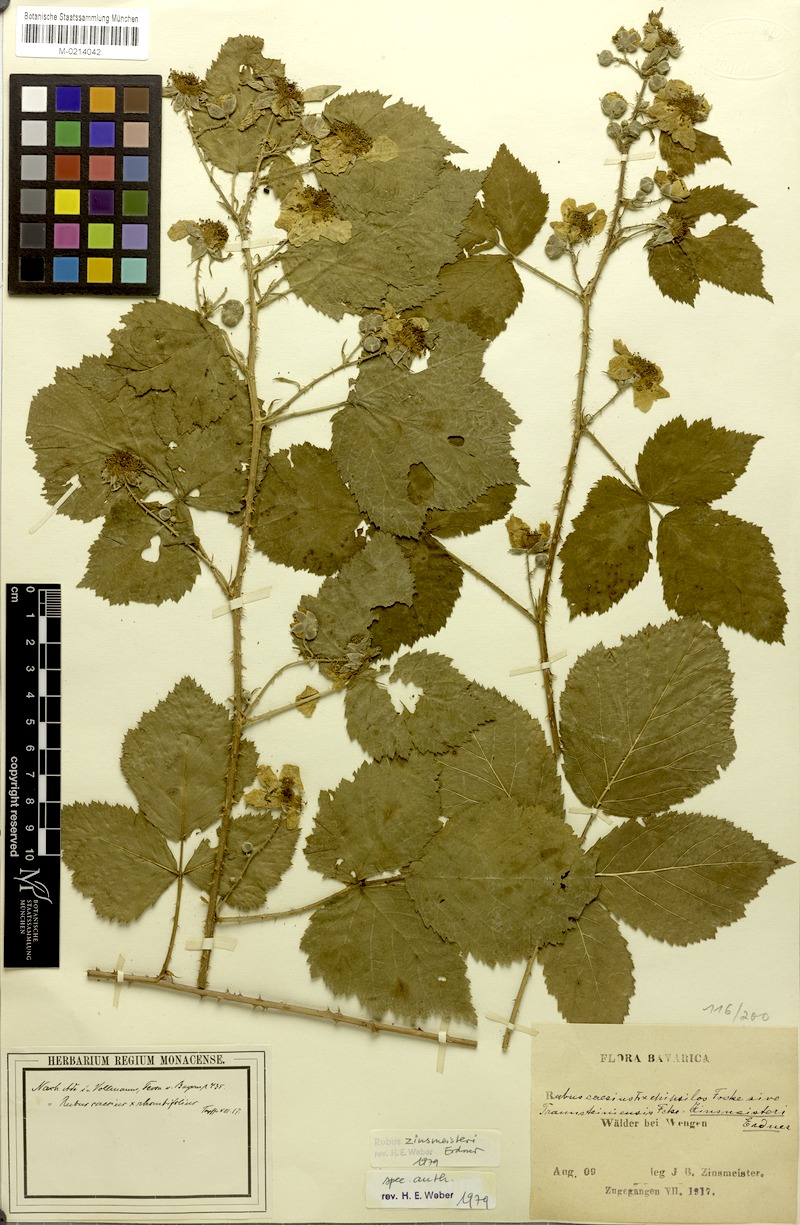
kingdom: Plantae
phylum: Tracheophyta
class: Magnoliopsida
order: Rosales
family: Rosaceae
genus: Rubus
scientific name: Rubus zinsmeisteri
